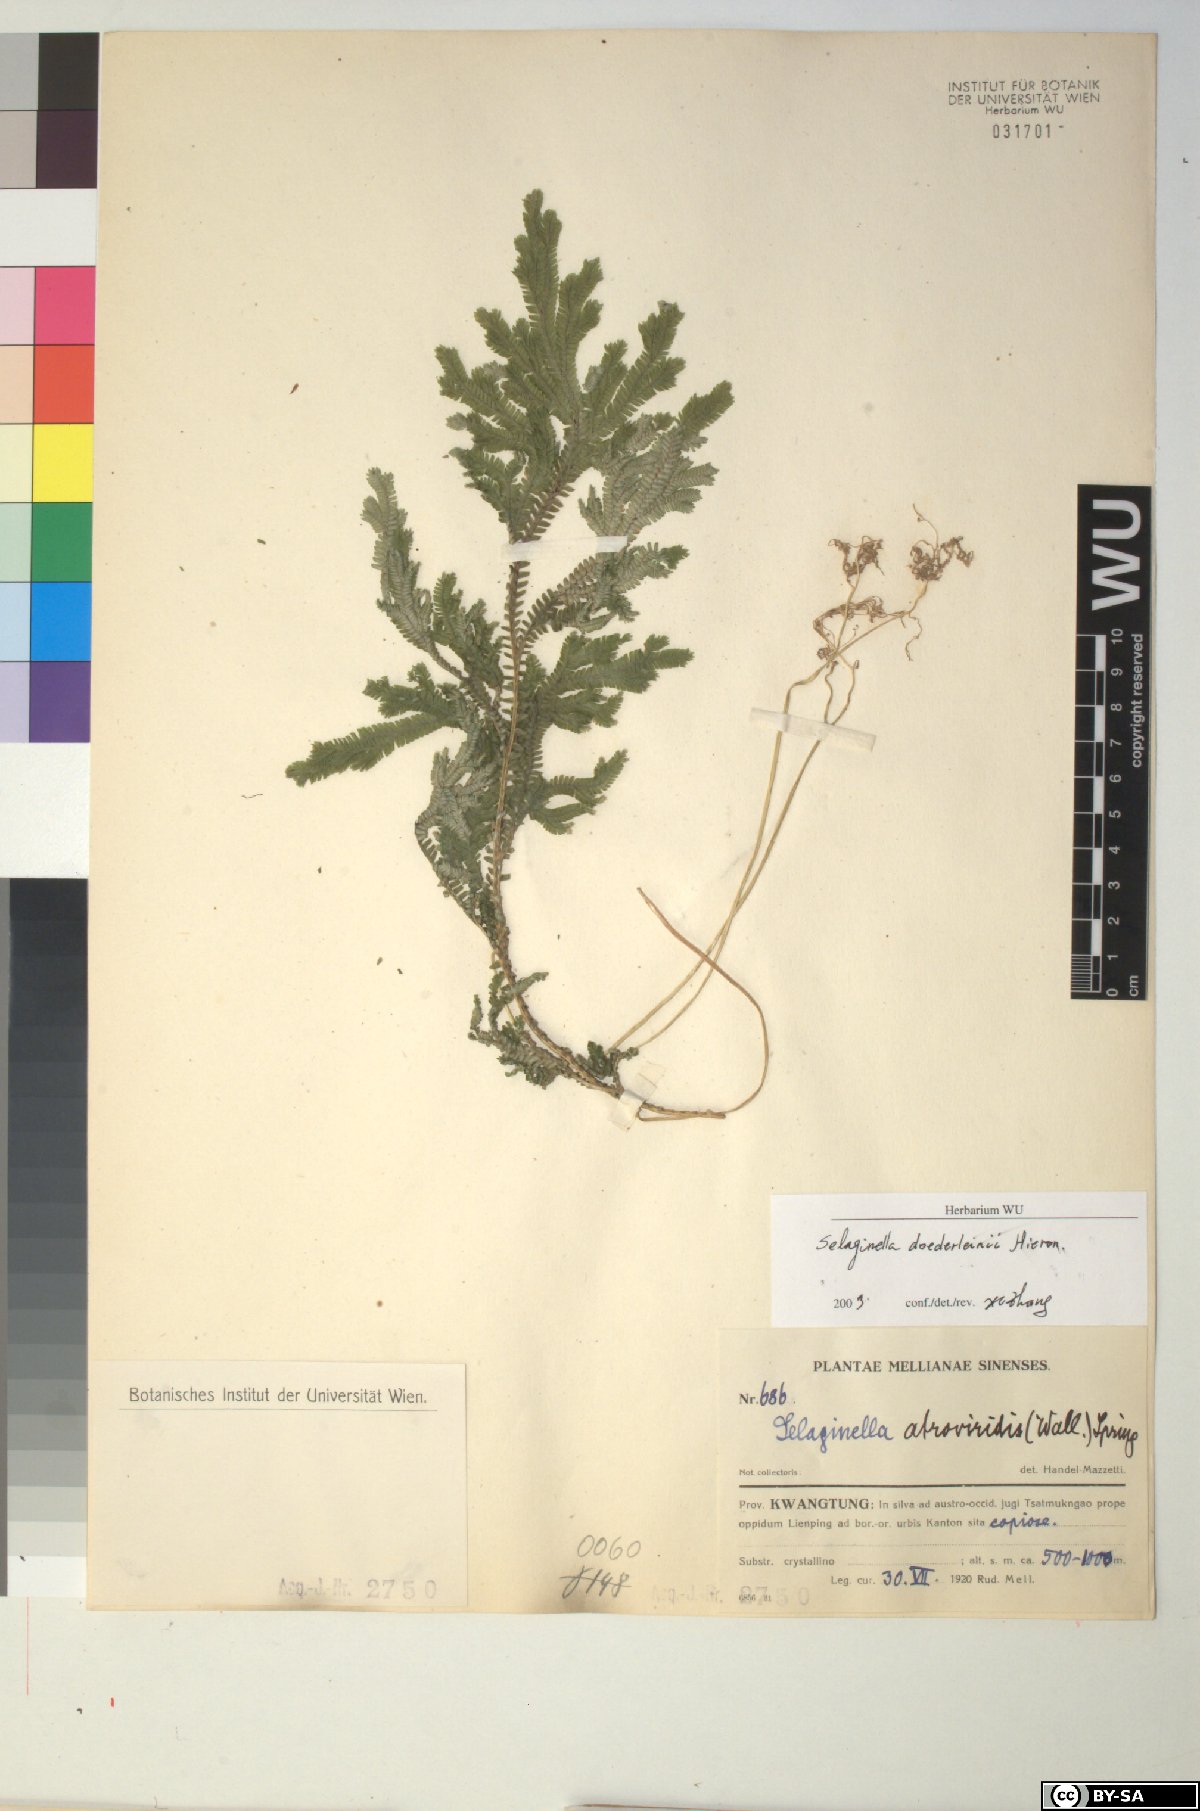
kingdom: Plantae
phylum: Tracheophyta
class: Lycopodiopsida
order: Selaginellales
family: Selaginellaceae
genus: Selaginella
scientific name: Selaginella doederleinii
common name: Greater selaginella
